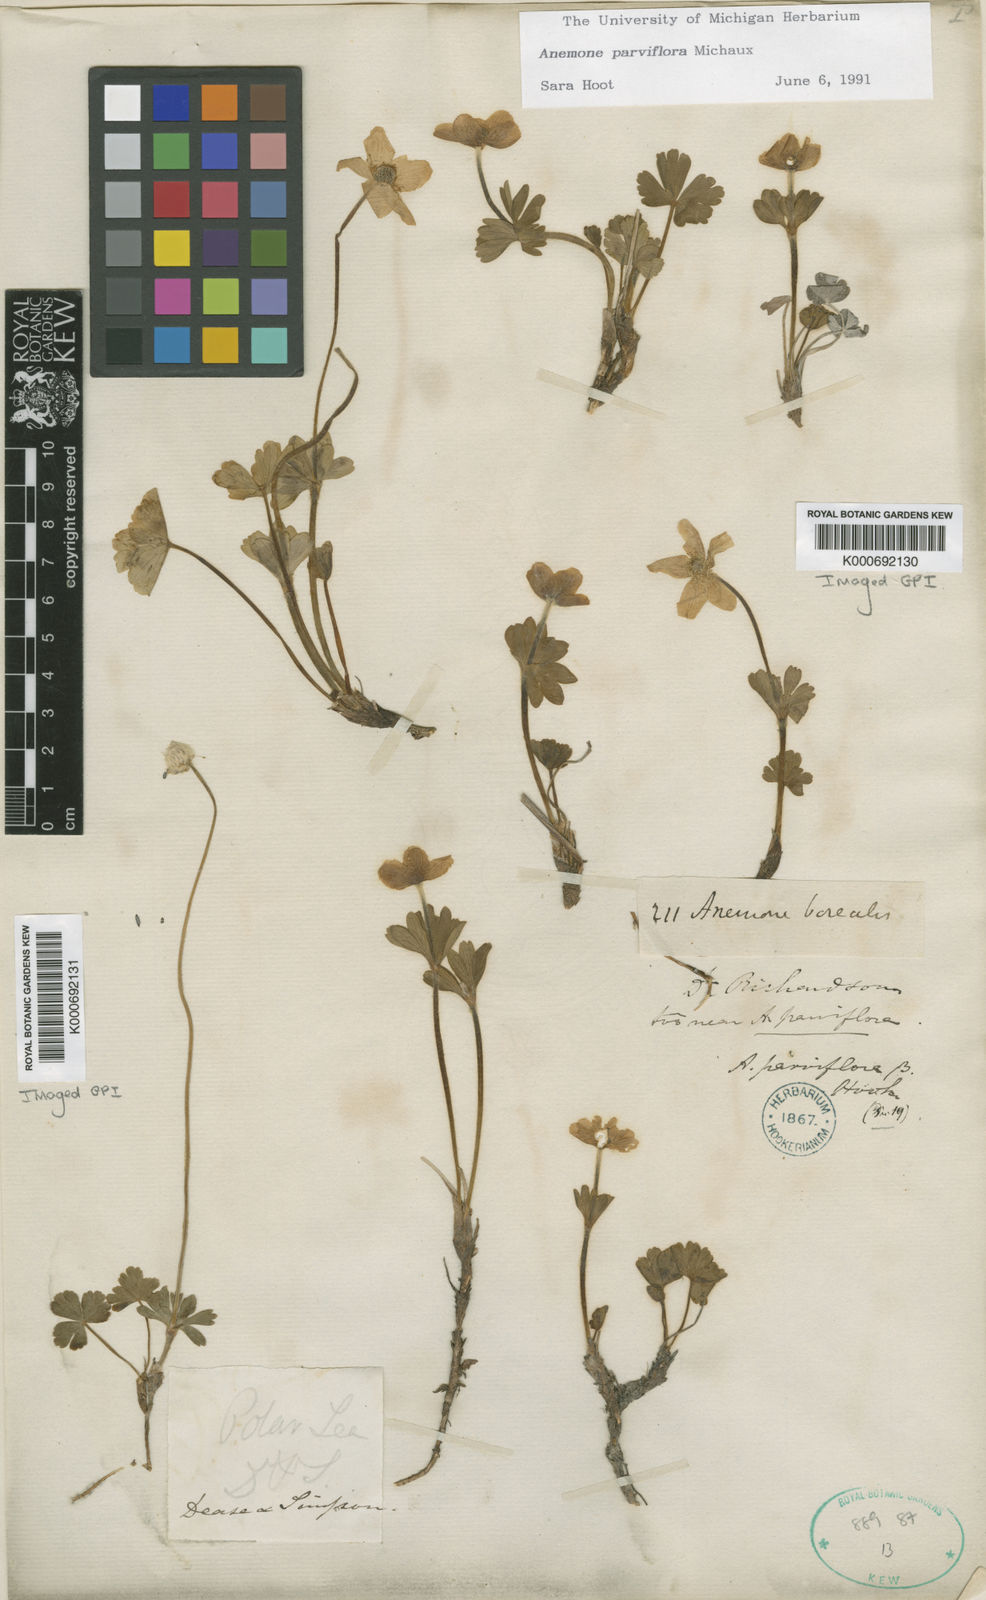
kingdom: Plantae
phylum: Tracheophyta
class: Magnoliopsida
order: Ranunculales
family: Ranunculaceae
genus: Anemone
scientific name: Anemone parviflora
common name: Northern anemone
